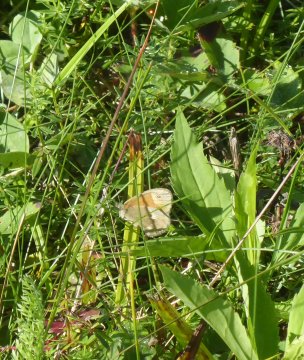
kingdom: Animalia
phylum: Arthropoda
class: Insecta
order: Lepidoptera
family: Nymphalidae
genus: Coenonympha
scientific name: Coenonympha tullia
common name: Large Heath
